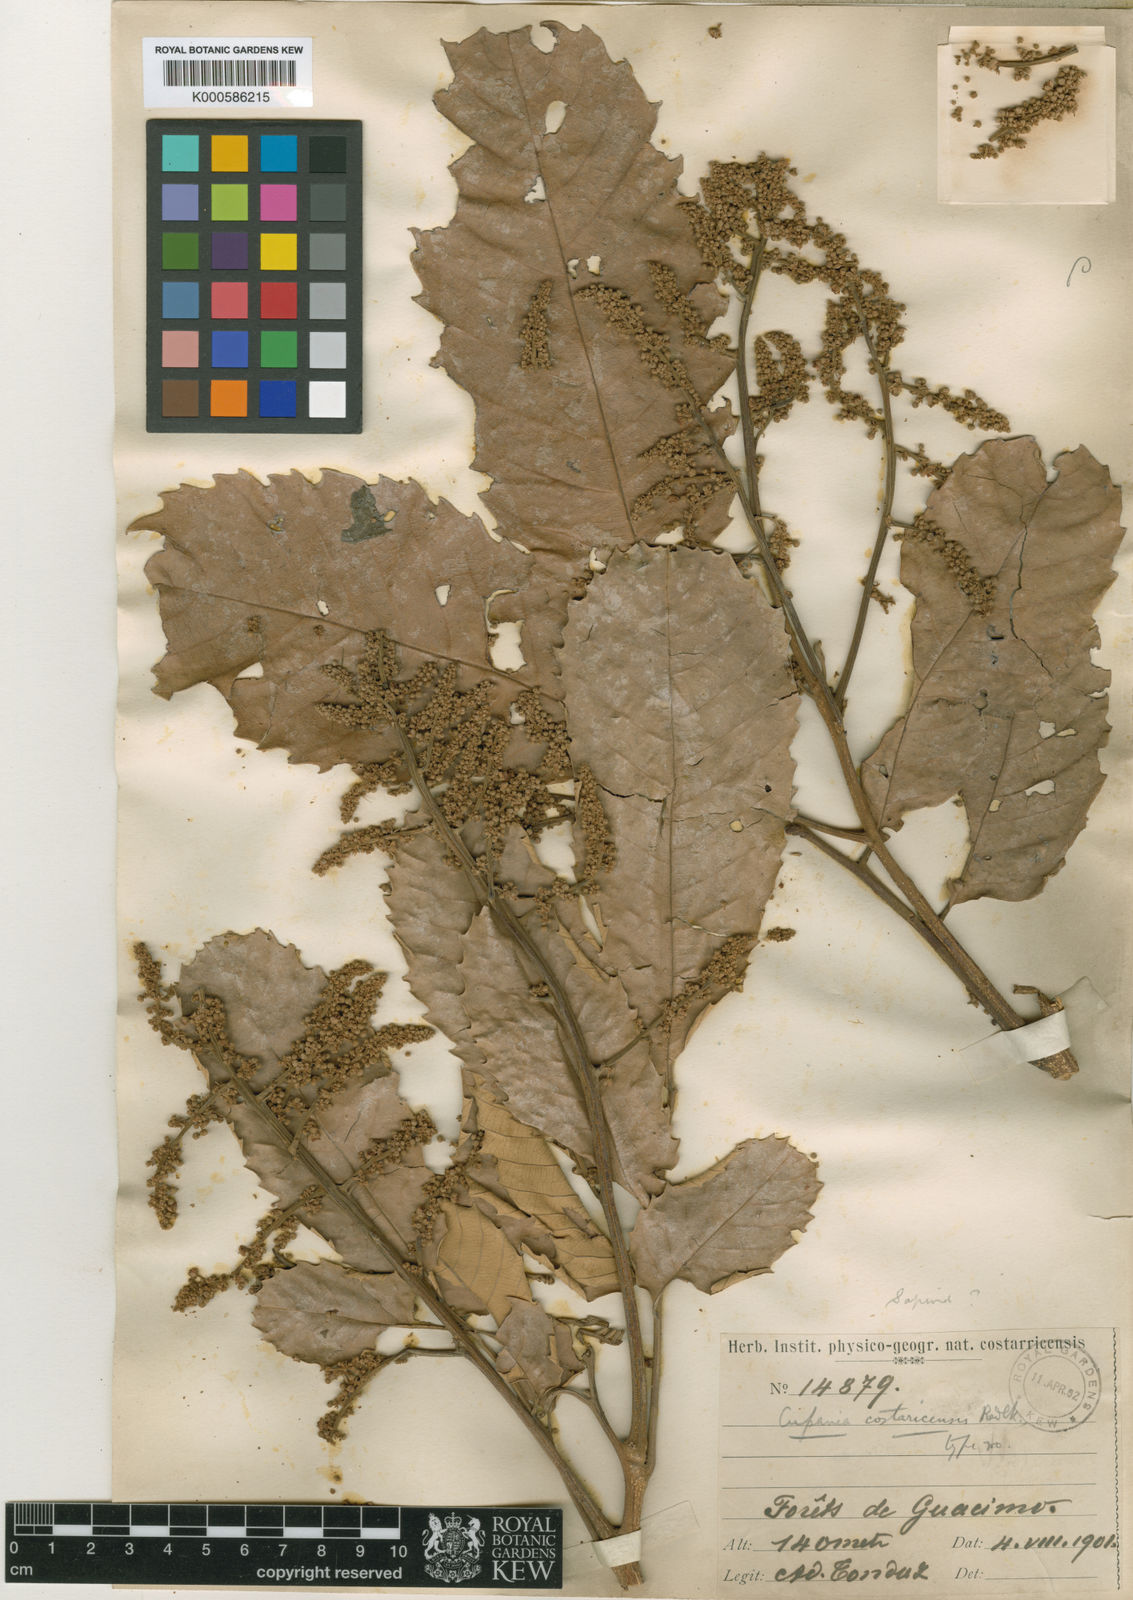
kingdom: Plantae
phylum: Tracheophyta
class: Magnoliopsida
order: Sapindales
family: Sapindaceae
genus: Cupania
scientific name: Cupania cinerea
